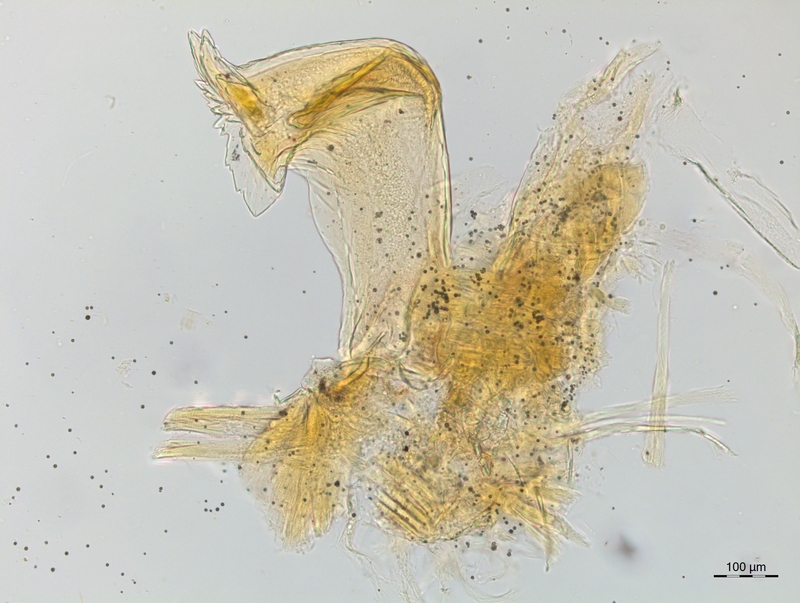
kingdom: Animalia
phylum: Arthropoda
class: Diplopoda
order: Chordeumatida
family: Craspedosomatidae
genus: Craspedosoma
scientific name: Craspedosoma brentanum
